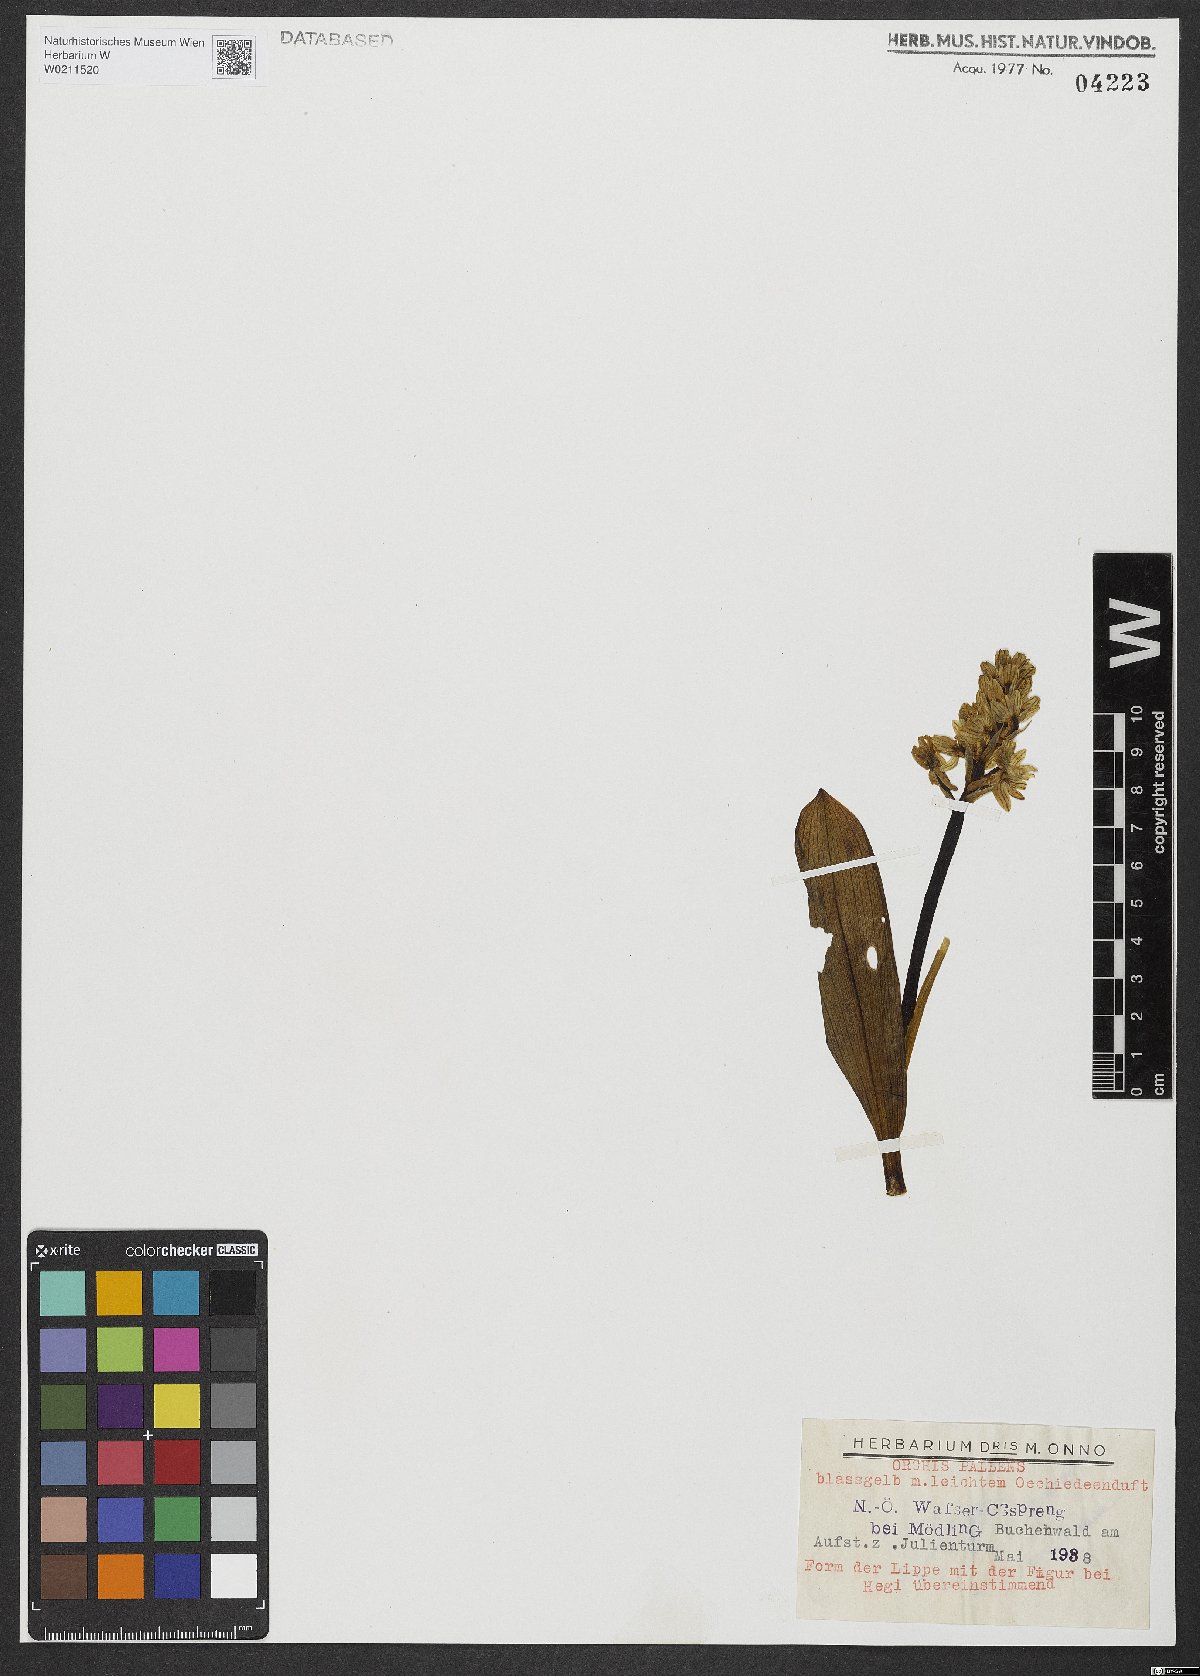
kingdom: Plantae
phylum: Tracheophyta
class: Liliopsida
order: Asparagales
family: Orchidaceae
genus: Orchis
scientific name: Orchis pallens
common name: Pale-flowered orchid
